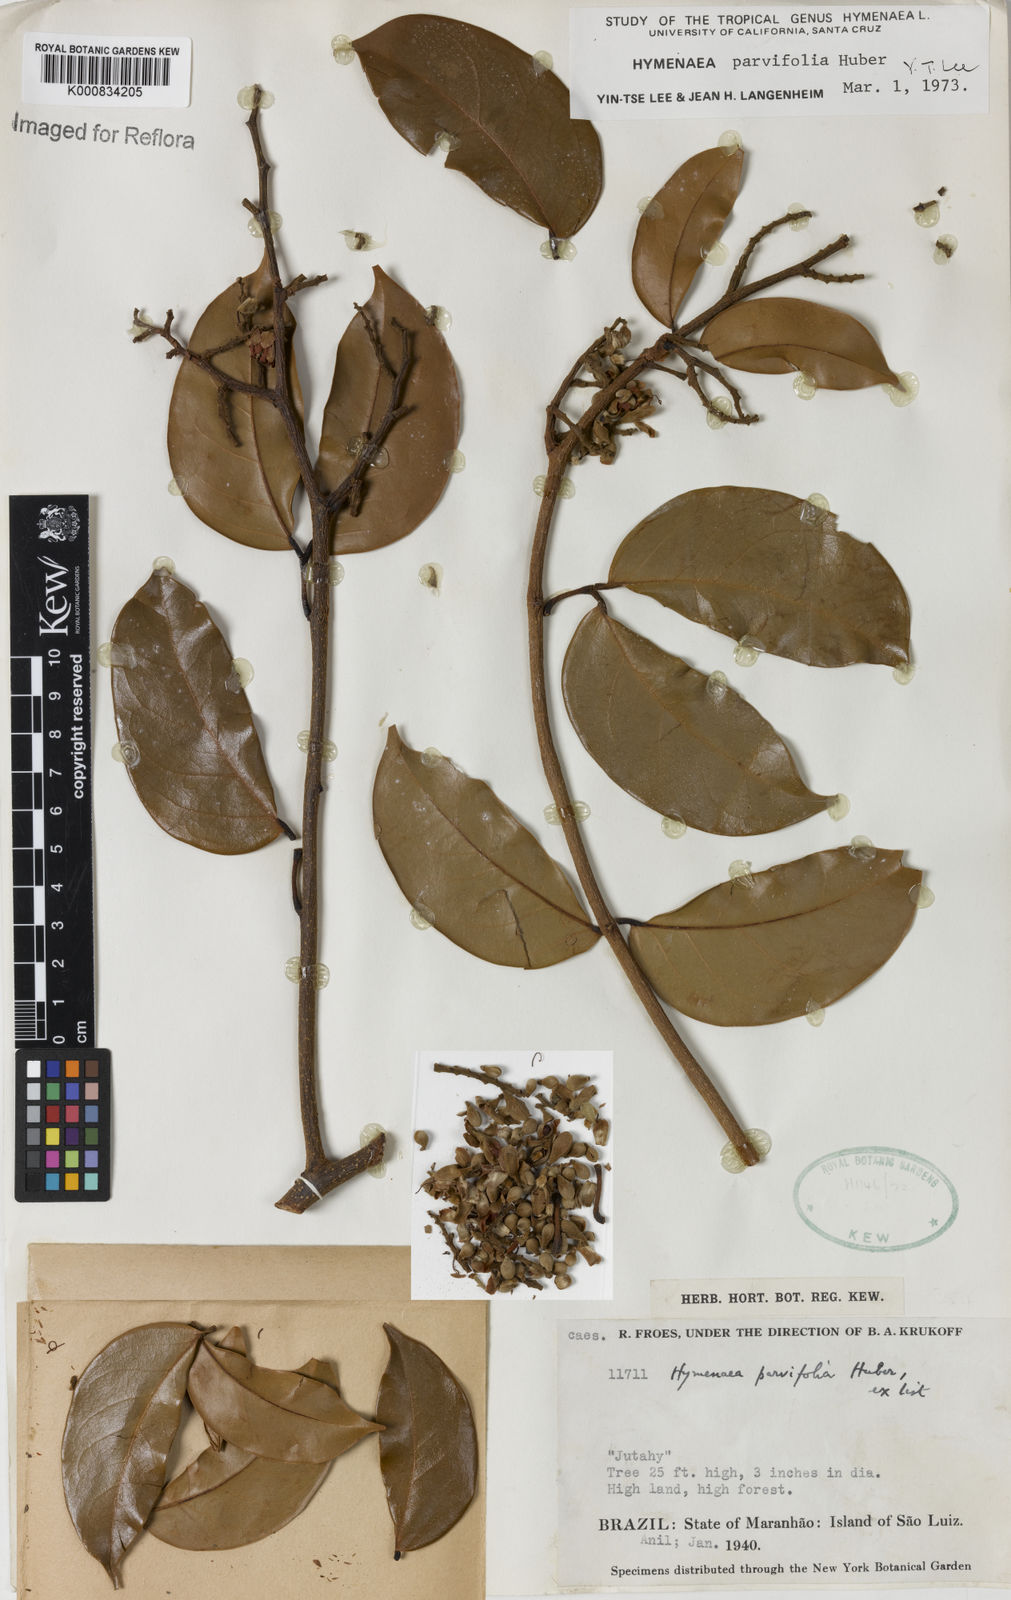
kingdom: Plantae
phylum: Tracheophyta
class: Magnoliopsida
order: Fabales
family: Fabaceae
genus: Hymenaea
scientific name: Hymenaea parvifolia
